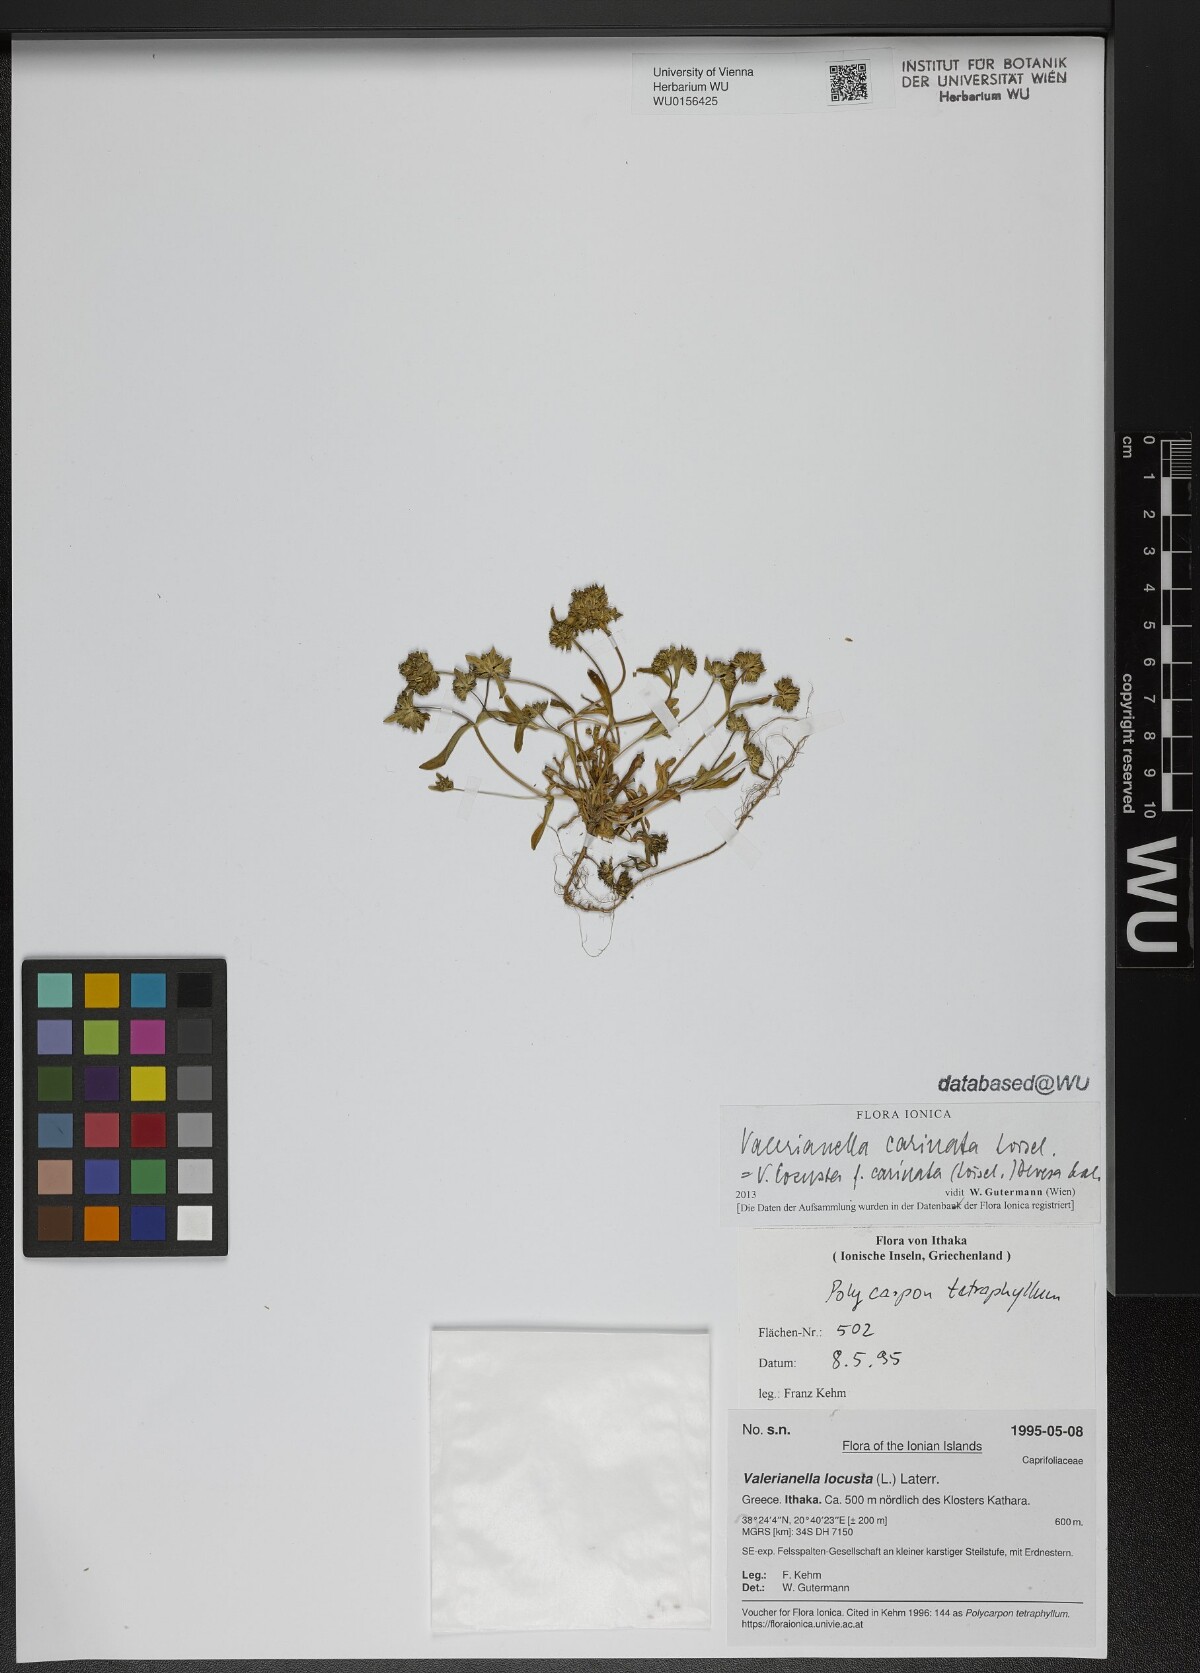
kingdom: Plantae
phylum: Tracheophyta
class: Magnoliopsida
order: Dipsacales
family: Caprifoliaceae
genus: Valerianella
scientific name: Valerianella locusta
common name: Common cornsalad
